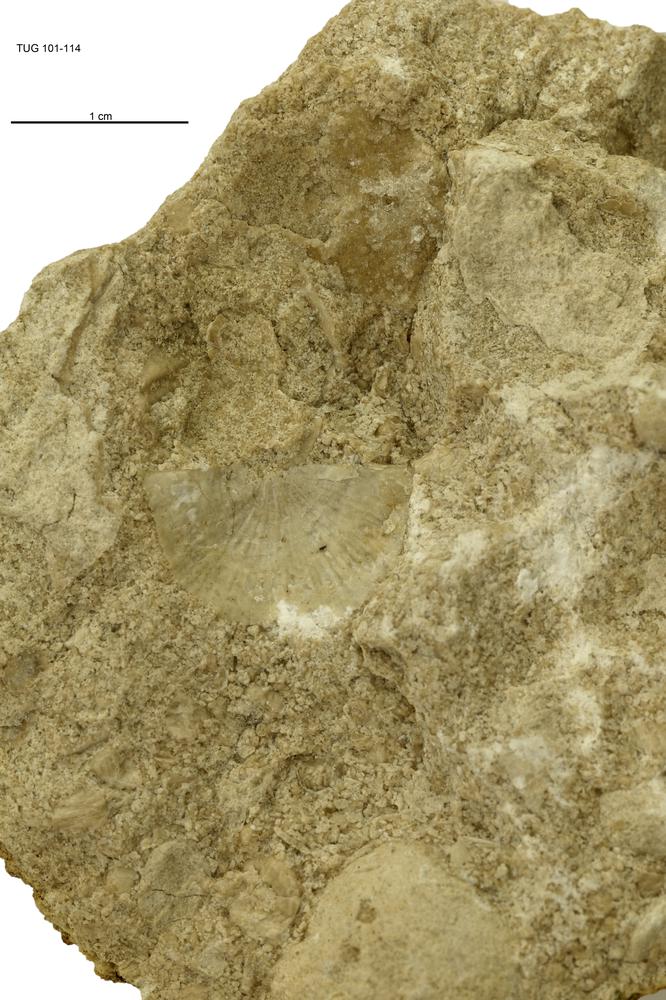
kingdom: Animalia
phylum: Brachiopoda
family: Strophomenidae
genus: Holtedahlina
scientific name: Holtedahlina
